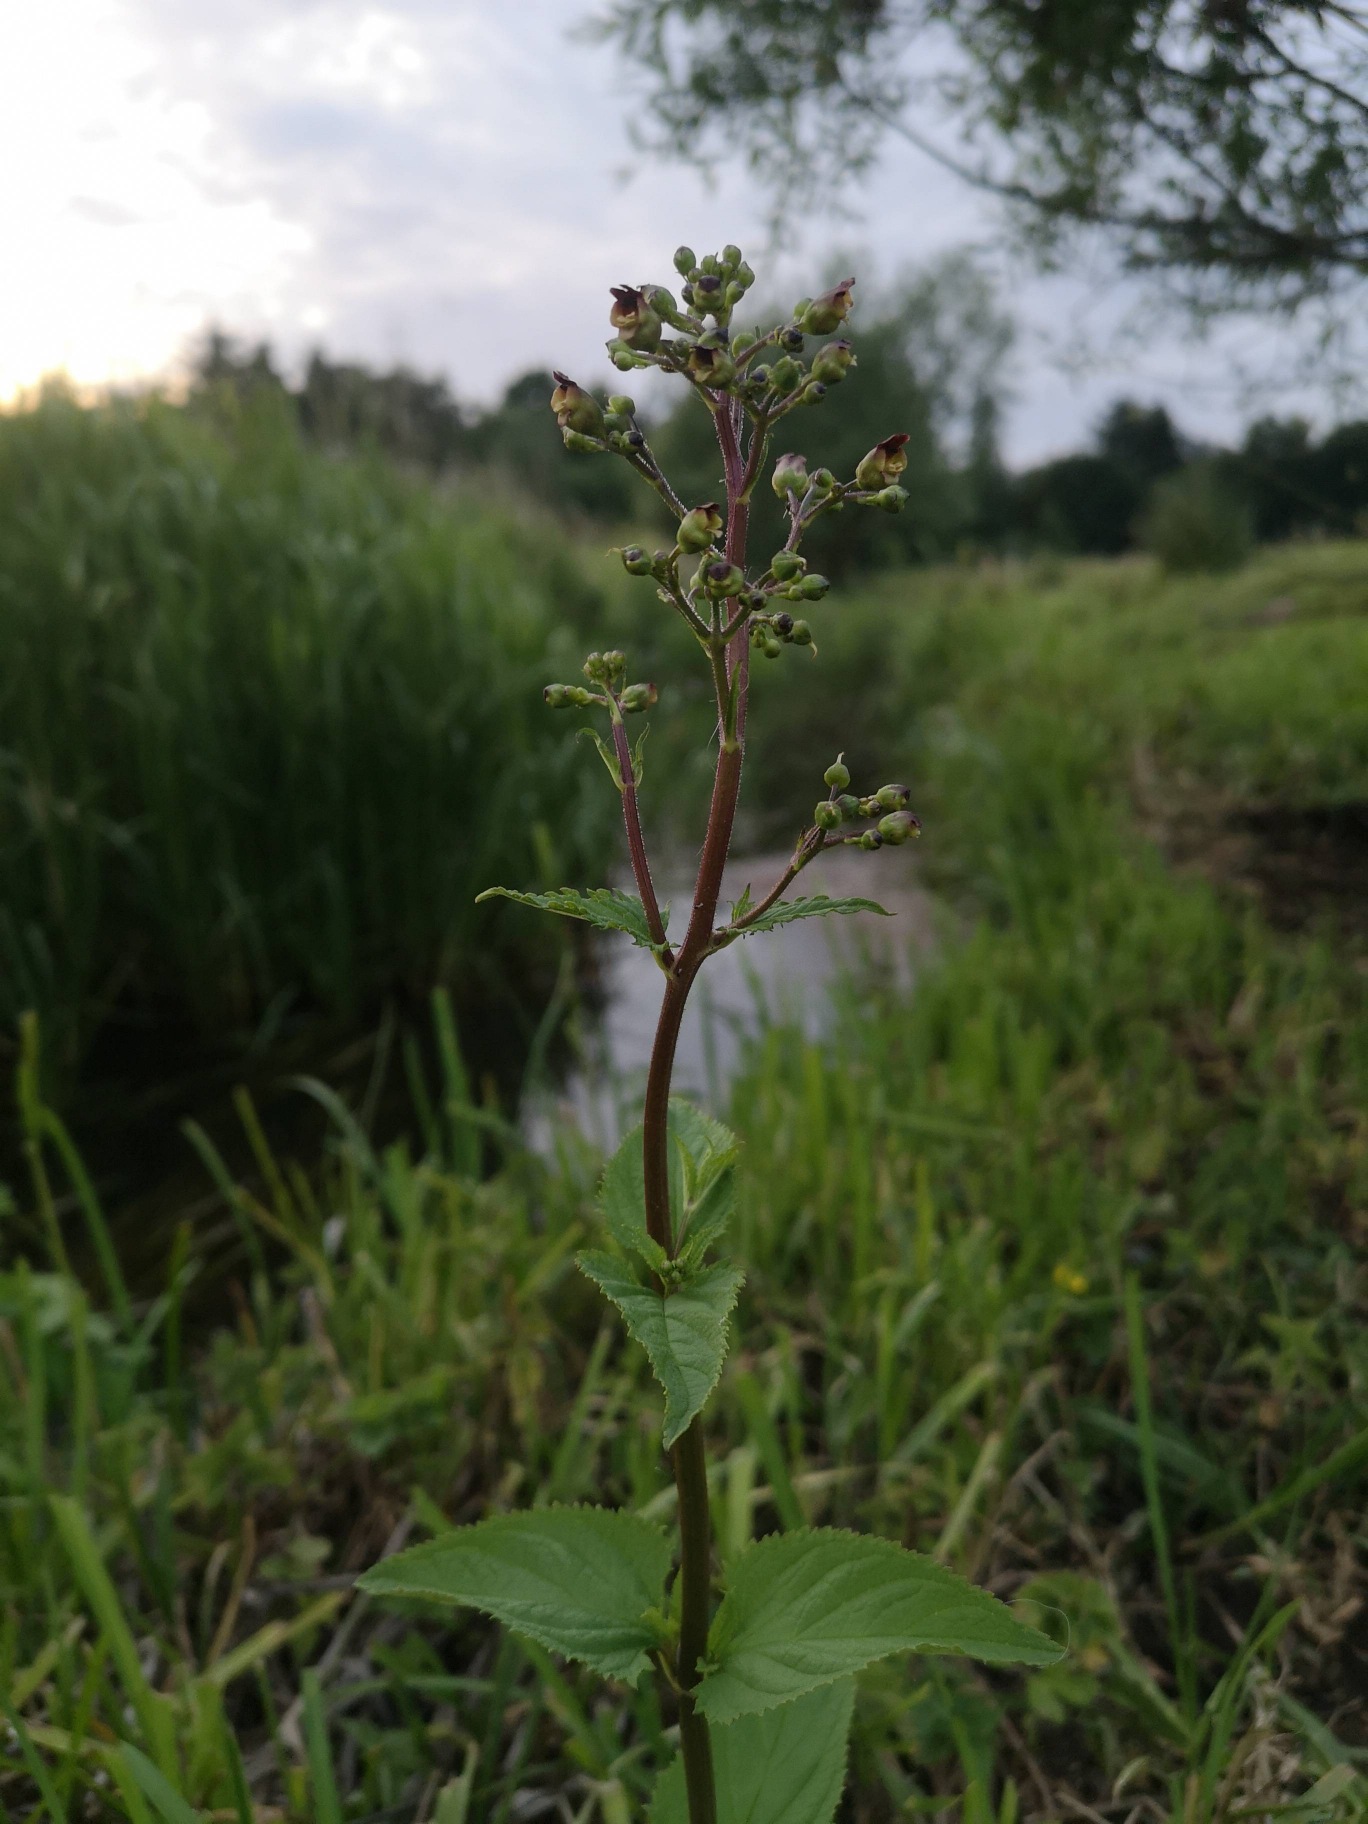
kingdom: Plantae
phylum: Tracheophyta
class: Magnoliopsida
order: Lamiales
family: Scrophulariaceae
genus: Scrophularia
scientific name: Scrophularia nodosa
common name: Knoldet brunrod
